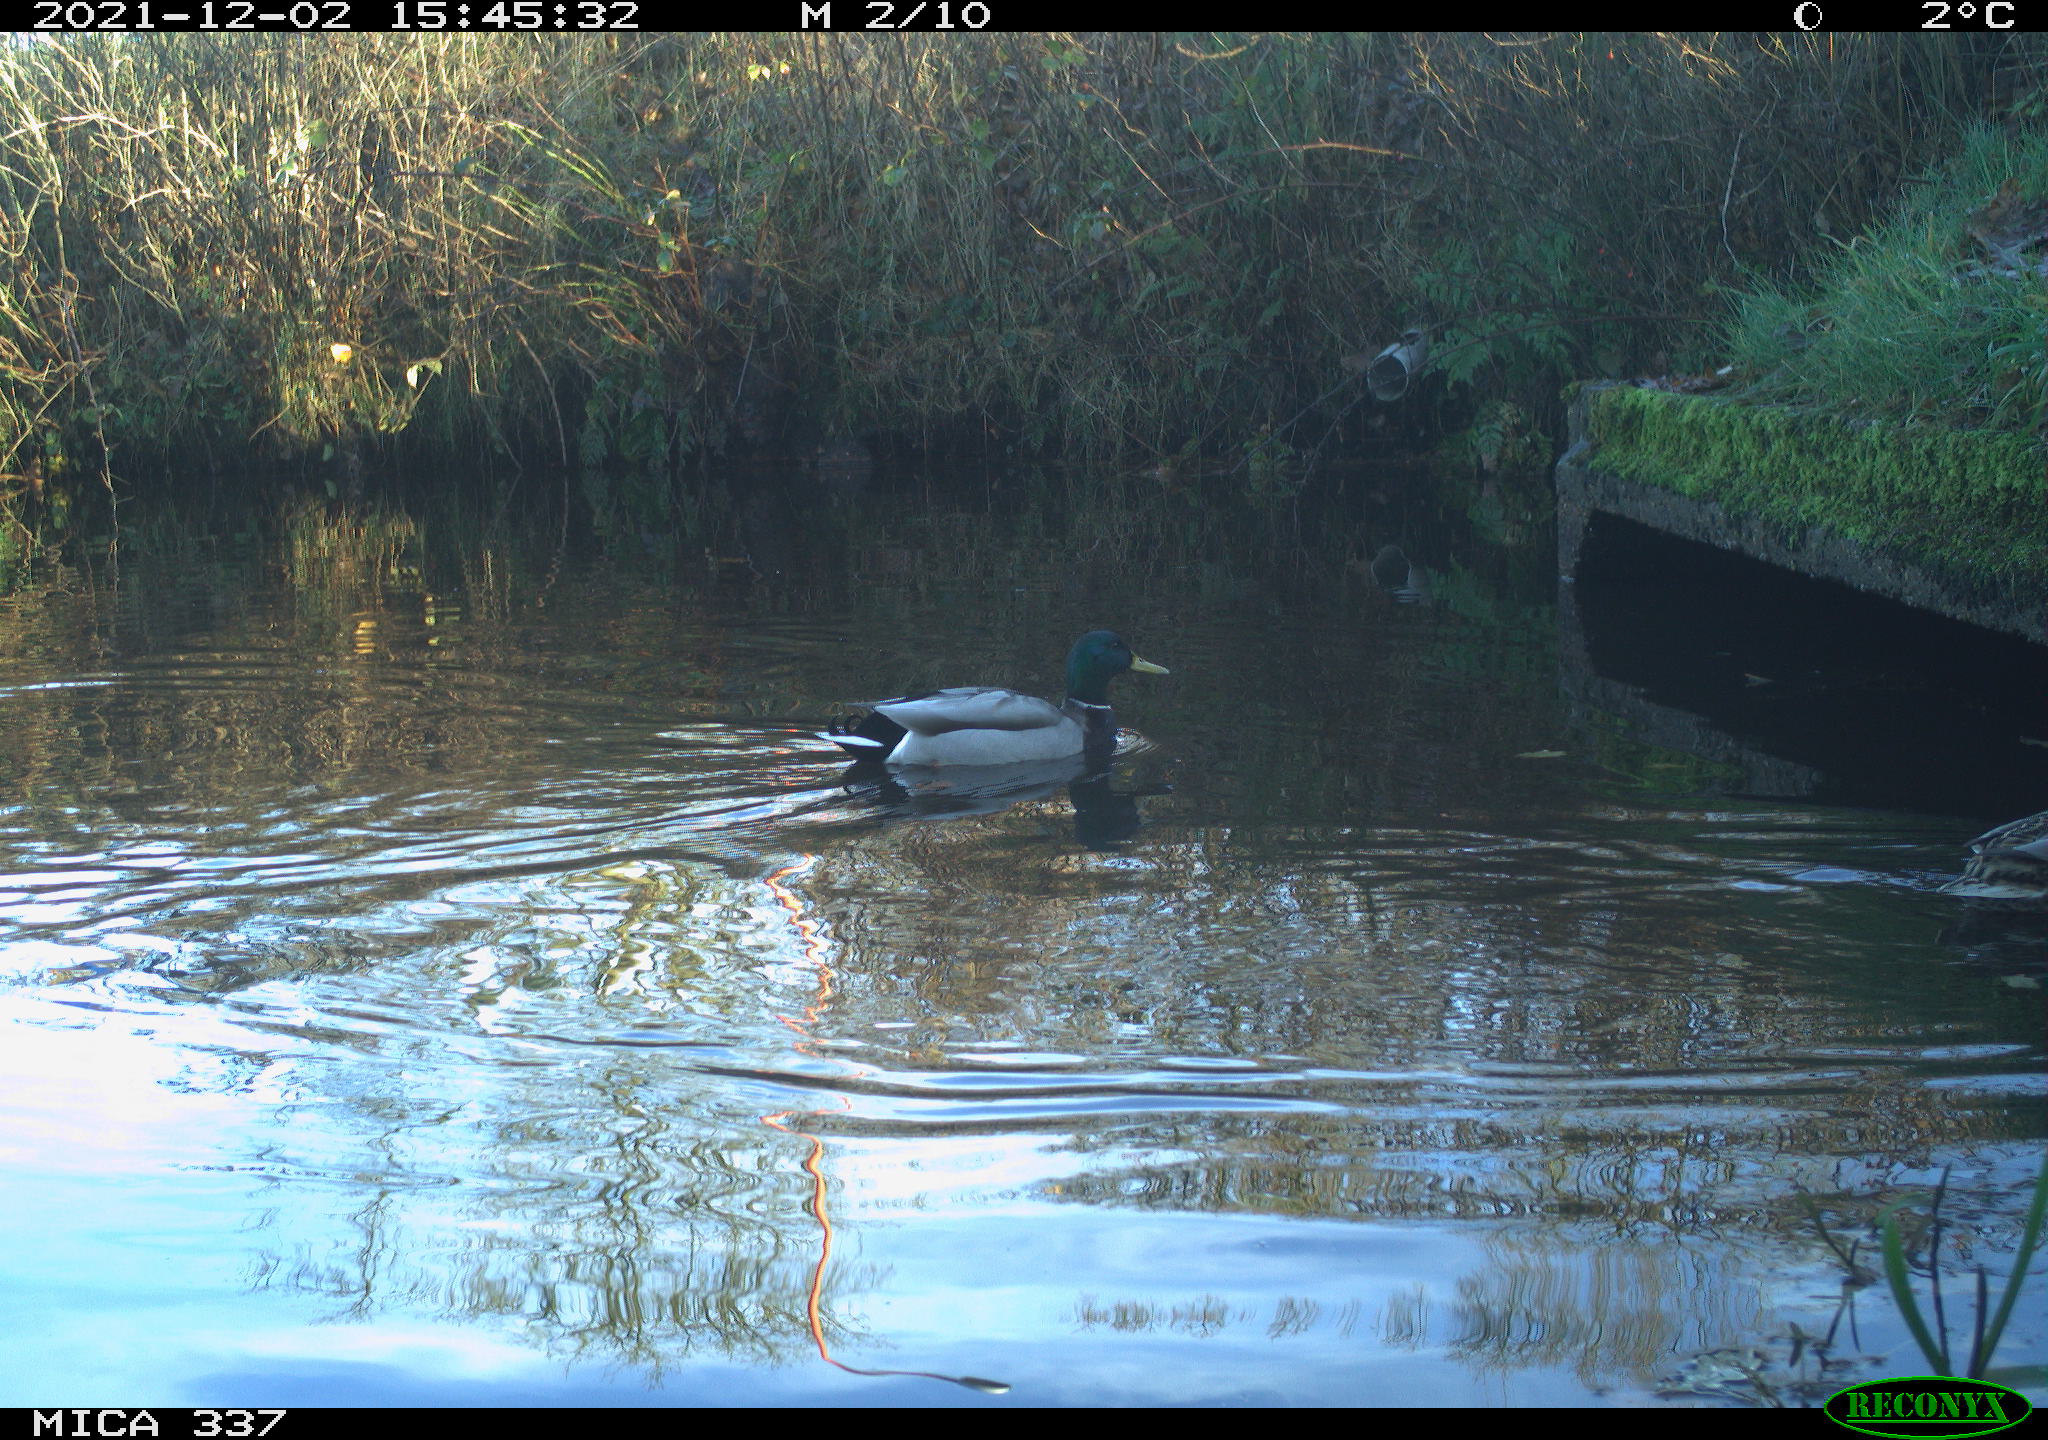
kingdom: Animalia
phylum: Chordata
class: Aves
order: Anseriformes
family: Anatidae
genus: Anas
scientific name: Anas platyrhynchos
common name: Mallard
